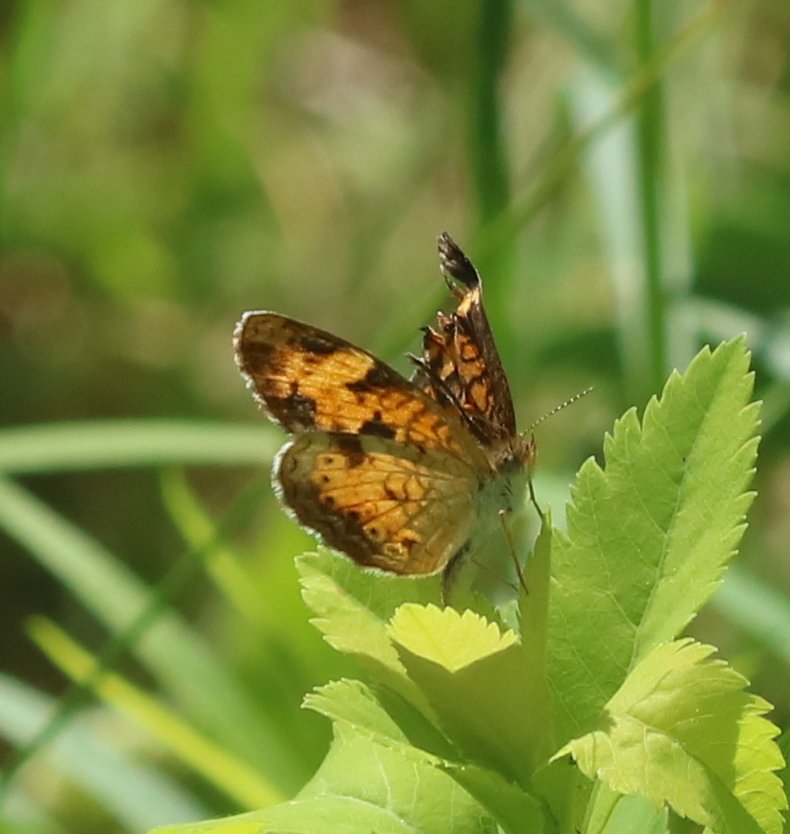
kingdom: Animalia
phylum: Arthropoda
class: Insecta
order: Lepidoptera
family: Nymphalidae
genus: Phyciodes
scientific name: Phyciodes tharos
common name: Northern Crescent
